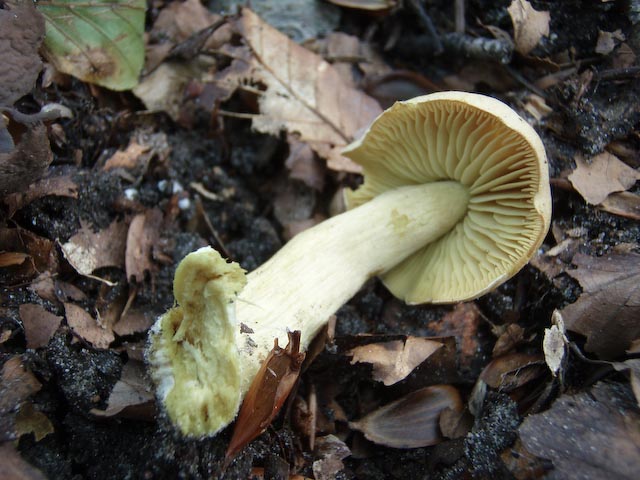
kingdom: Fungi
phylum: Basidiomycota
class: Agaricomycetes
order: Agaricales
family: Tricholomataceae
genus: Tricholoma
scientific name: Tricholoma sulphureum
